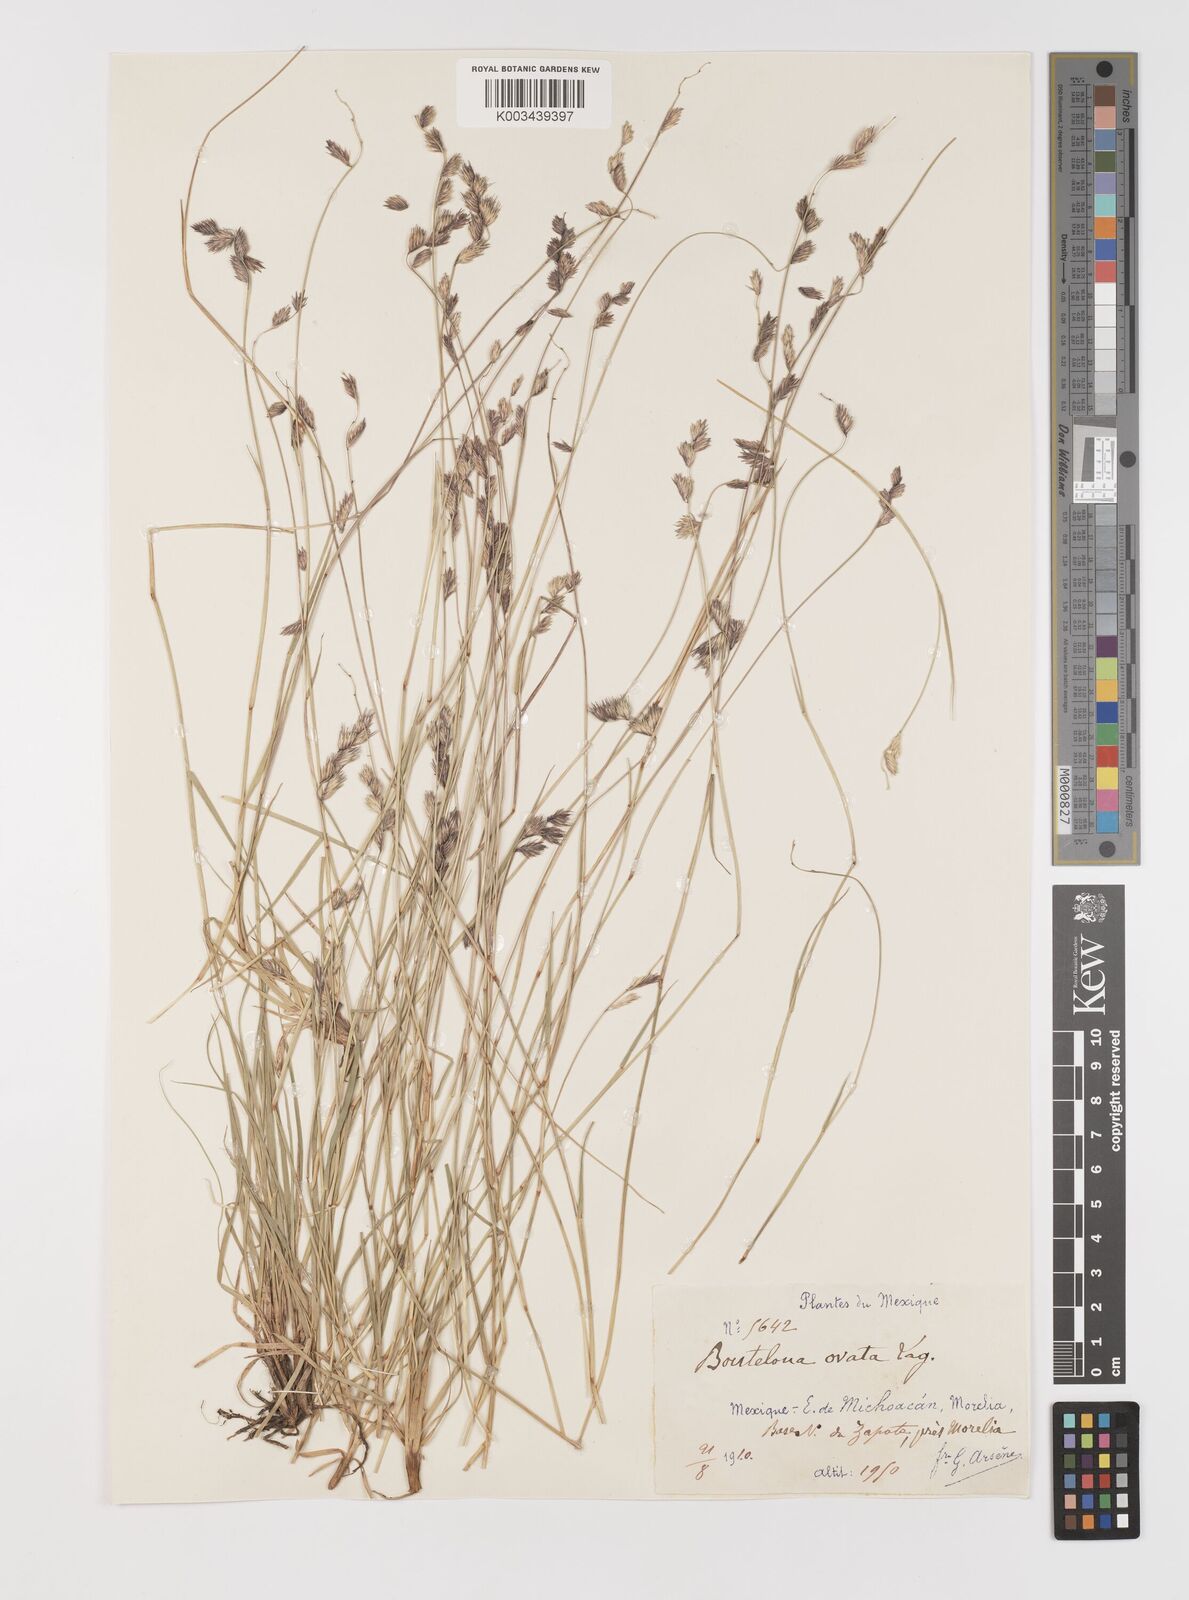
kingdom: Plantae
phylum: Tracheophyta
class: Liliopsida
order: Poales
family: Poaceae
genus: Bouteloua
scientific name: Bouteloua chondrosioides
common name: Sprucetop grama
